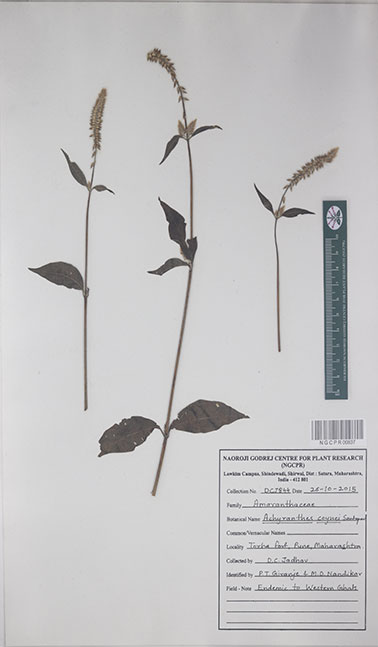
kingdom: Plantae
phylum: Tracheophyta
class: Magnoliopsida
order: Caryophyllales
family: Amaranthaceae
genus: Achyranthes
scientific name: Achyranthes coynei
